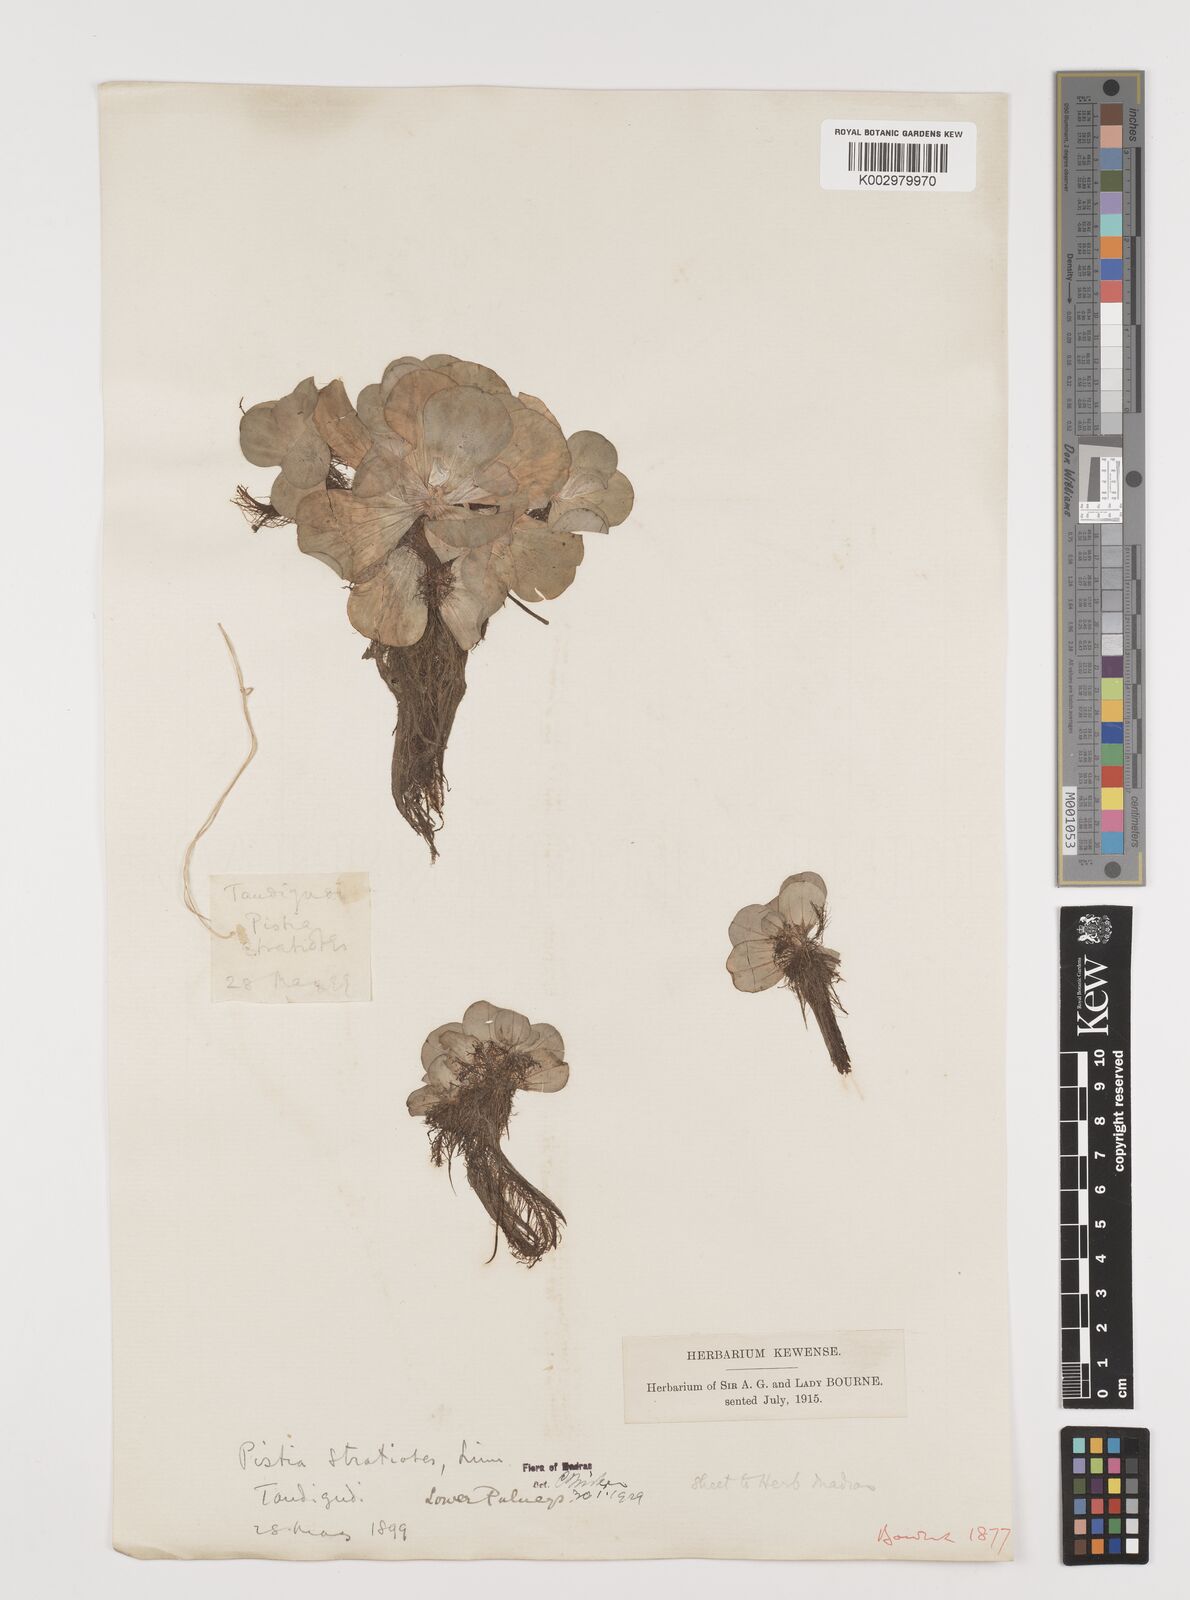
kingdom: Plantae
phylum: Tracheophyta
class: Liliopsida
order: Alismatales
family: Araceae
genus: Pistia
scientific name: Pistia stratiotes
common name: Water lettuce
